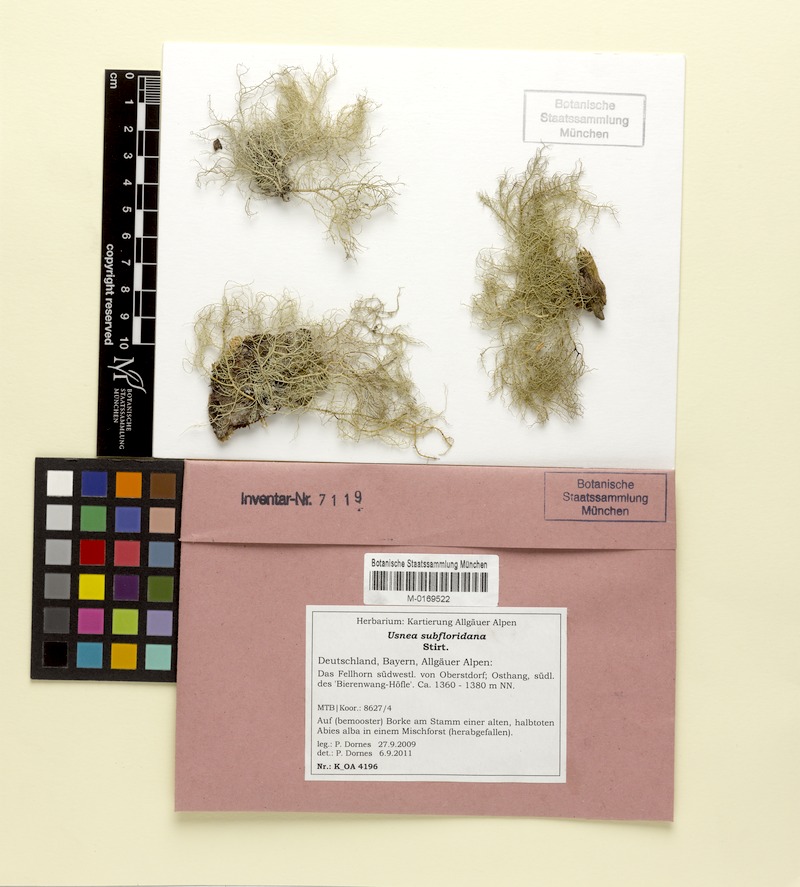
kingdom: Fungi
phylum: Ascomycota
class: Lecanoromycetes
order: Lecanorales
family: Parmeliaceae
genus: Usnea
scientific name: Usnea subfloridana
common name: Boreal beard lichen
